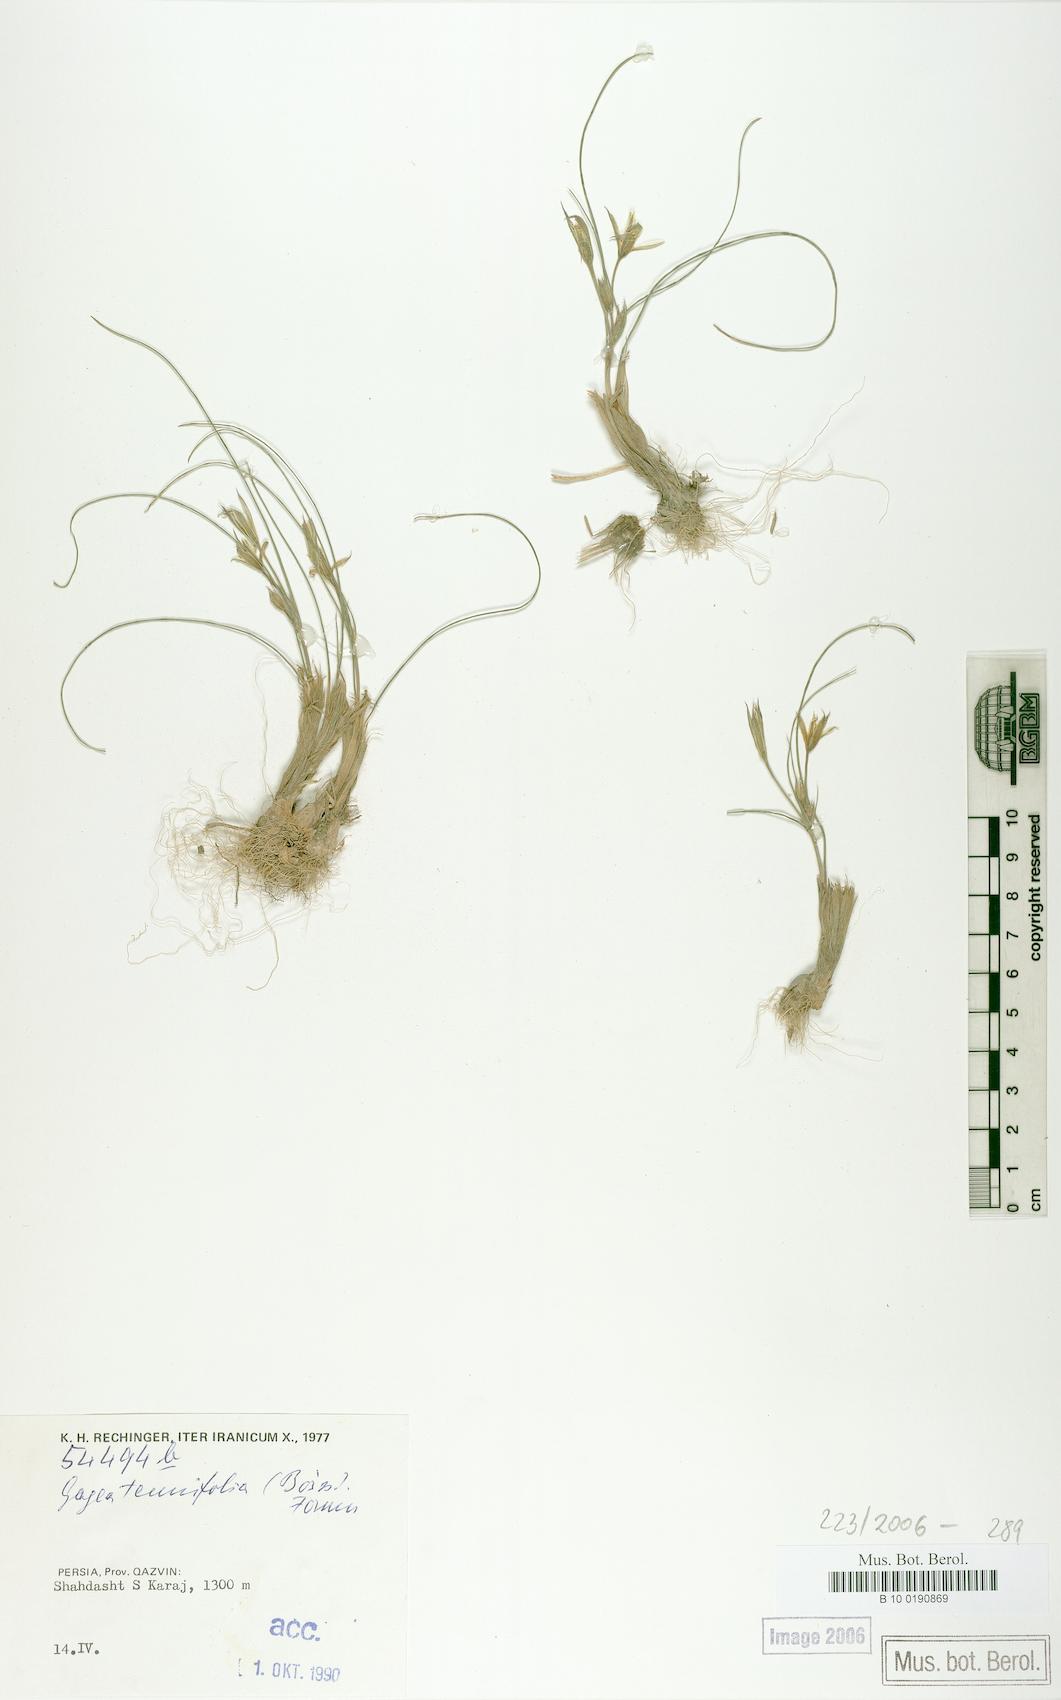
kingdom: Plantae
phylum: Tracheophyta
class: Liliopsida
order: Liliales
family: Liliaceae
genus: Gagea
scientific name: Gagea reticulata
